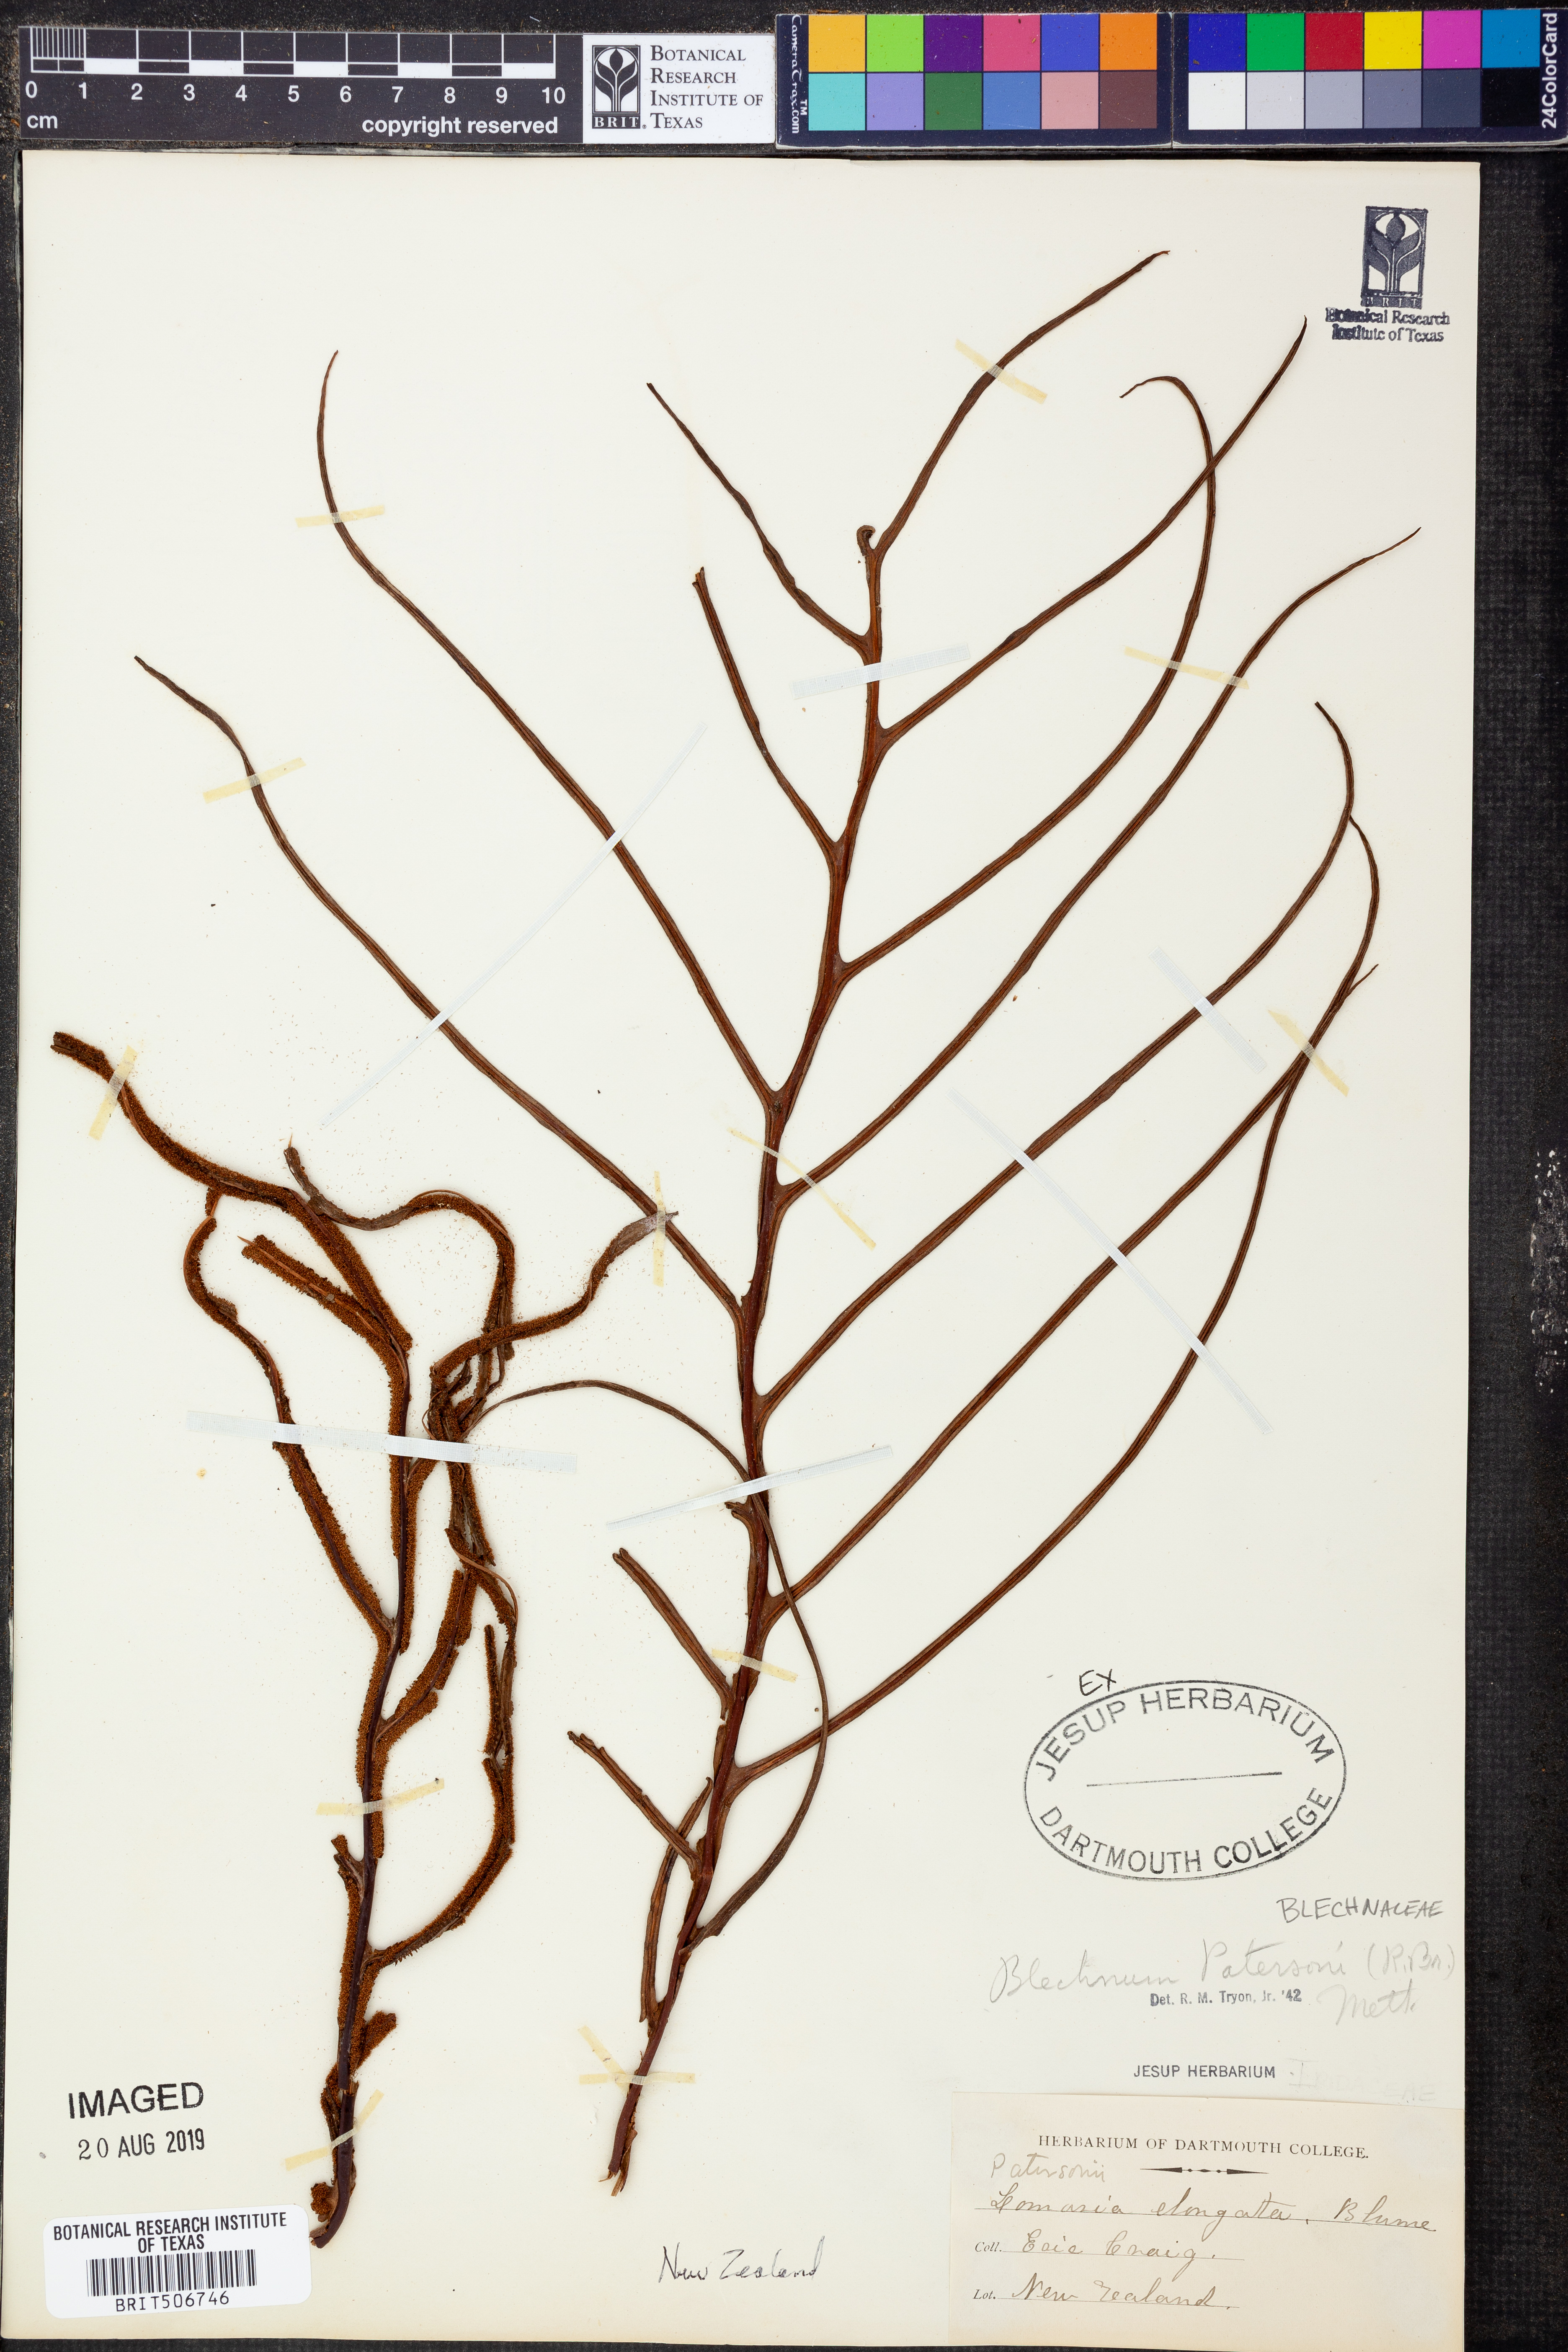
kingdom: Plantae
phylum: Tracheophyta
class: Polypodiopsida
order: Polypodiales
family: Blechnaceae
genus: Austroblechnum
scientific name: Austroblechnum patersonii
